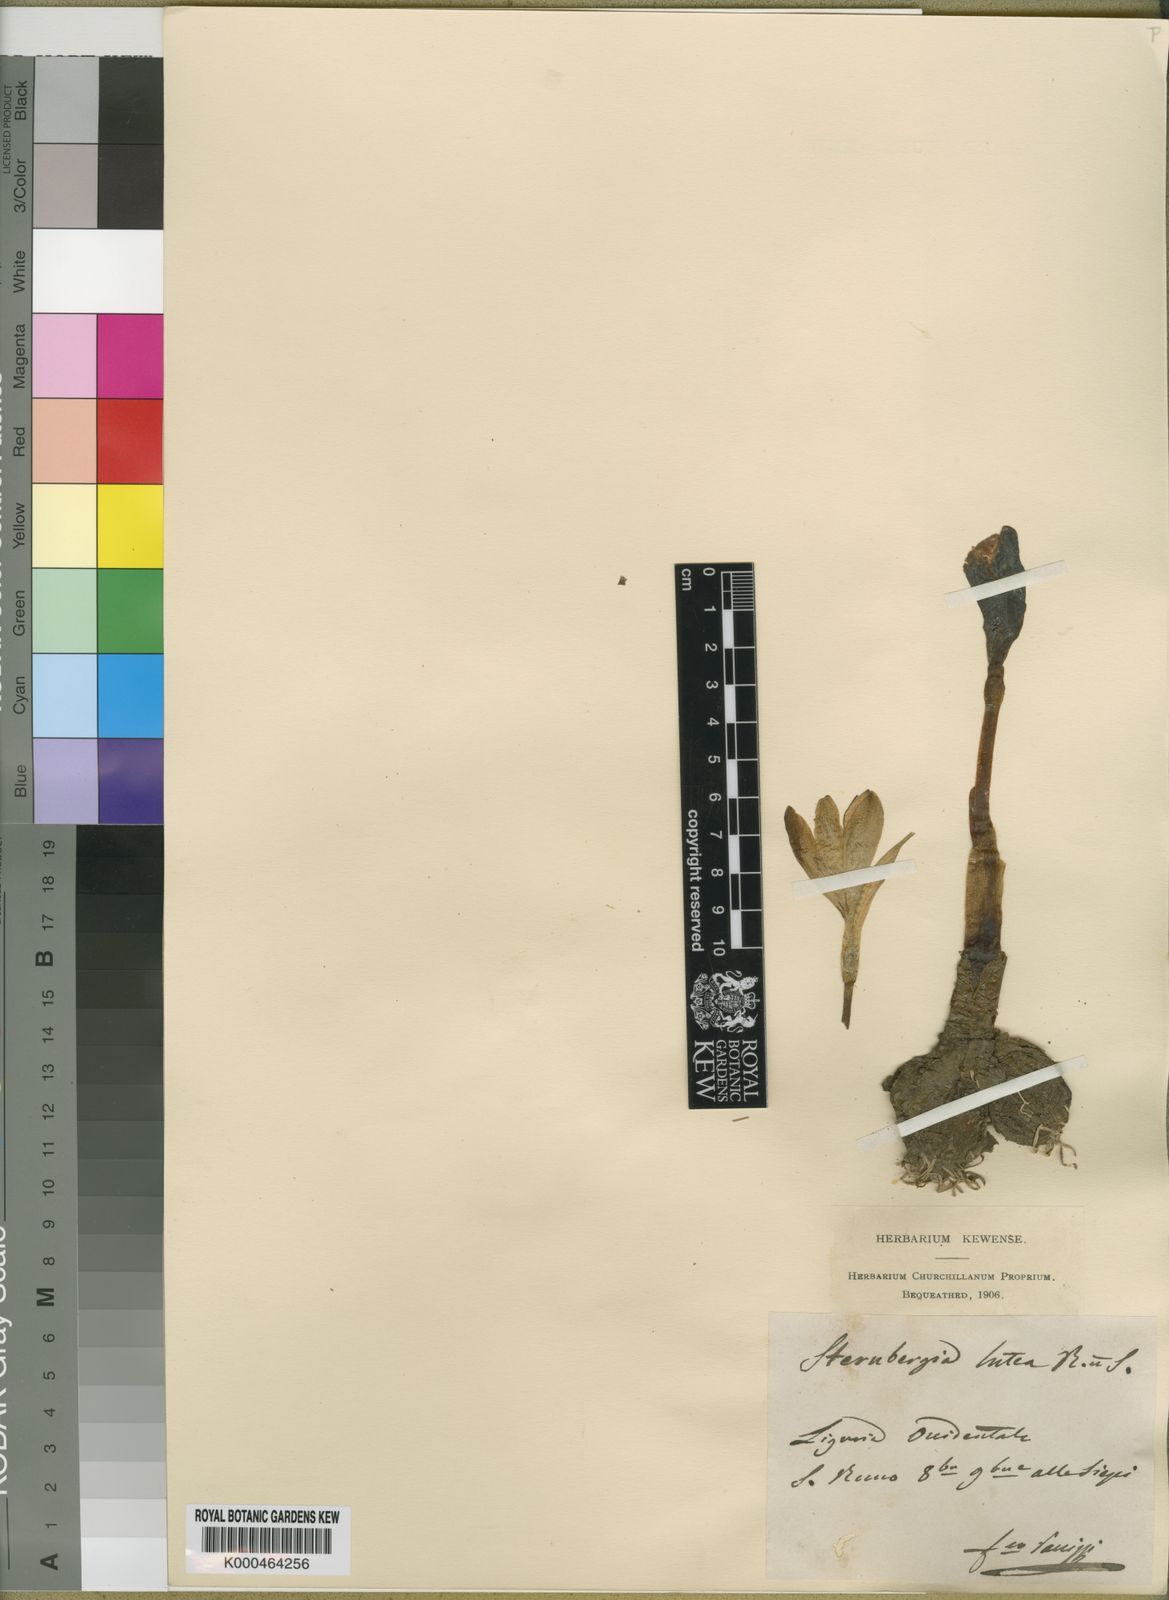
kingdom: Plantae
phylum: Tracheophyta
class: Liliopsida
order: Asparagales
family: Amaryllidaceae
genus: Sternbergia
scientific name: Sternbergia
